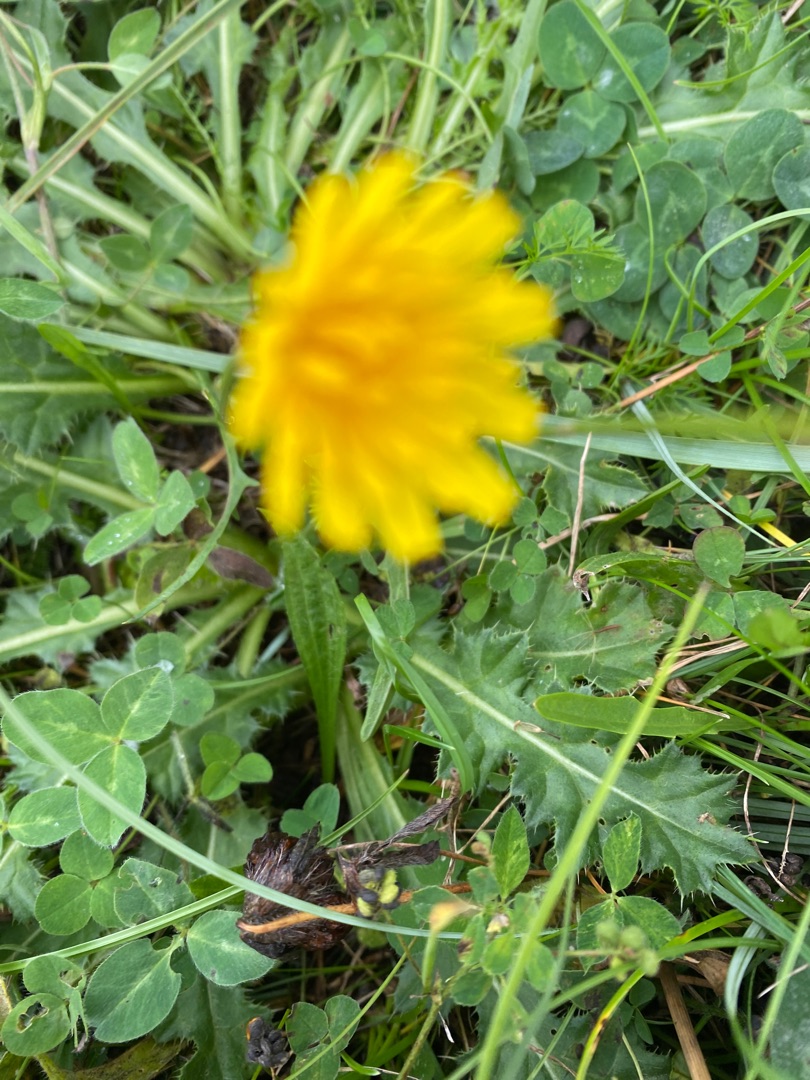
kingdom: Plantae
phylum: Tracheophyta
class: Magnoliopsida
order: Asterales
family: Asteraceae
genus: Scorzoneroides
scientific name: Scorzoneroides autumnalis
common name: Høst-borst
